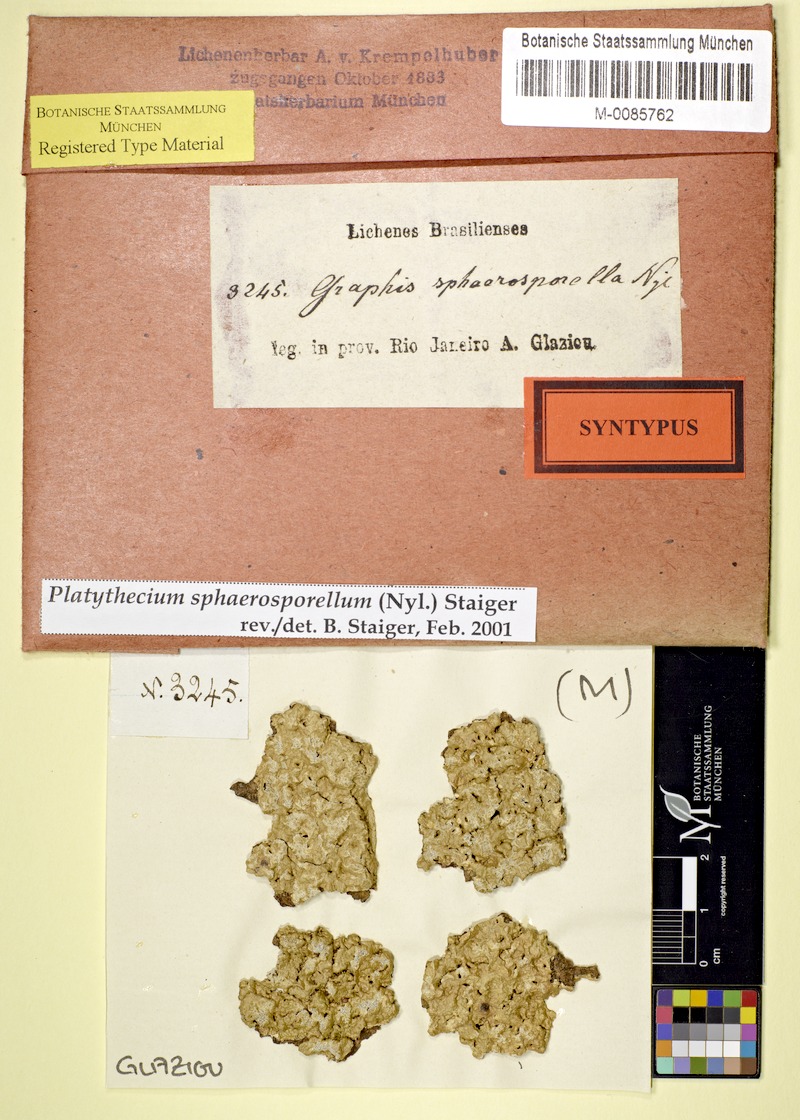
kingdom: Fungi
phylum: Ascomycota
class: Lecanoromycetes
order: Ostropales
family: Graphidaceae
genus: Platythecium
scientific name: Platythecium sphaerosporellum
